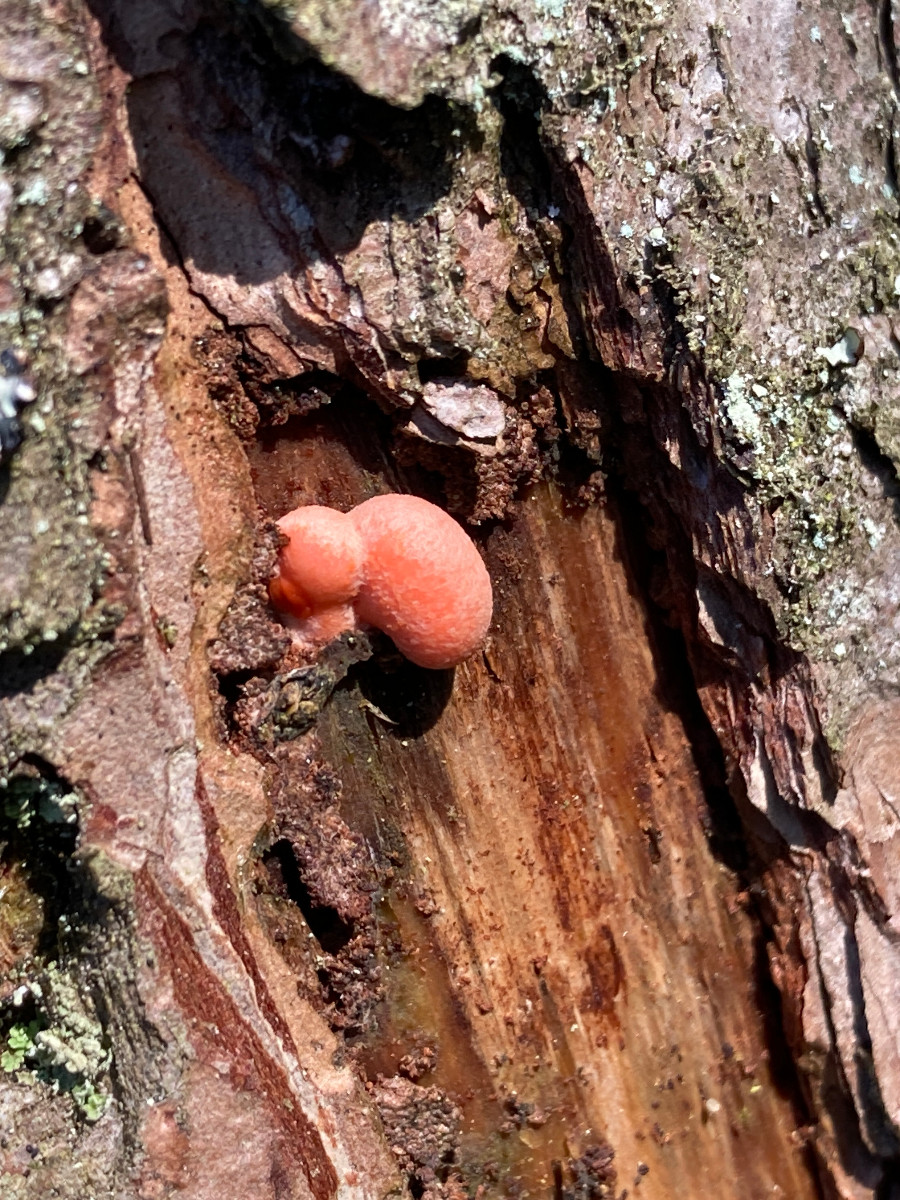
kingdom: Protozoa
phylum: Mycetozoa
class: Myxomycetes
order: Cribrariales
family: Tubiferaceae
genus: Lycogala
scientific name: Lycogala epidendrum
